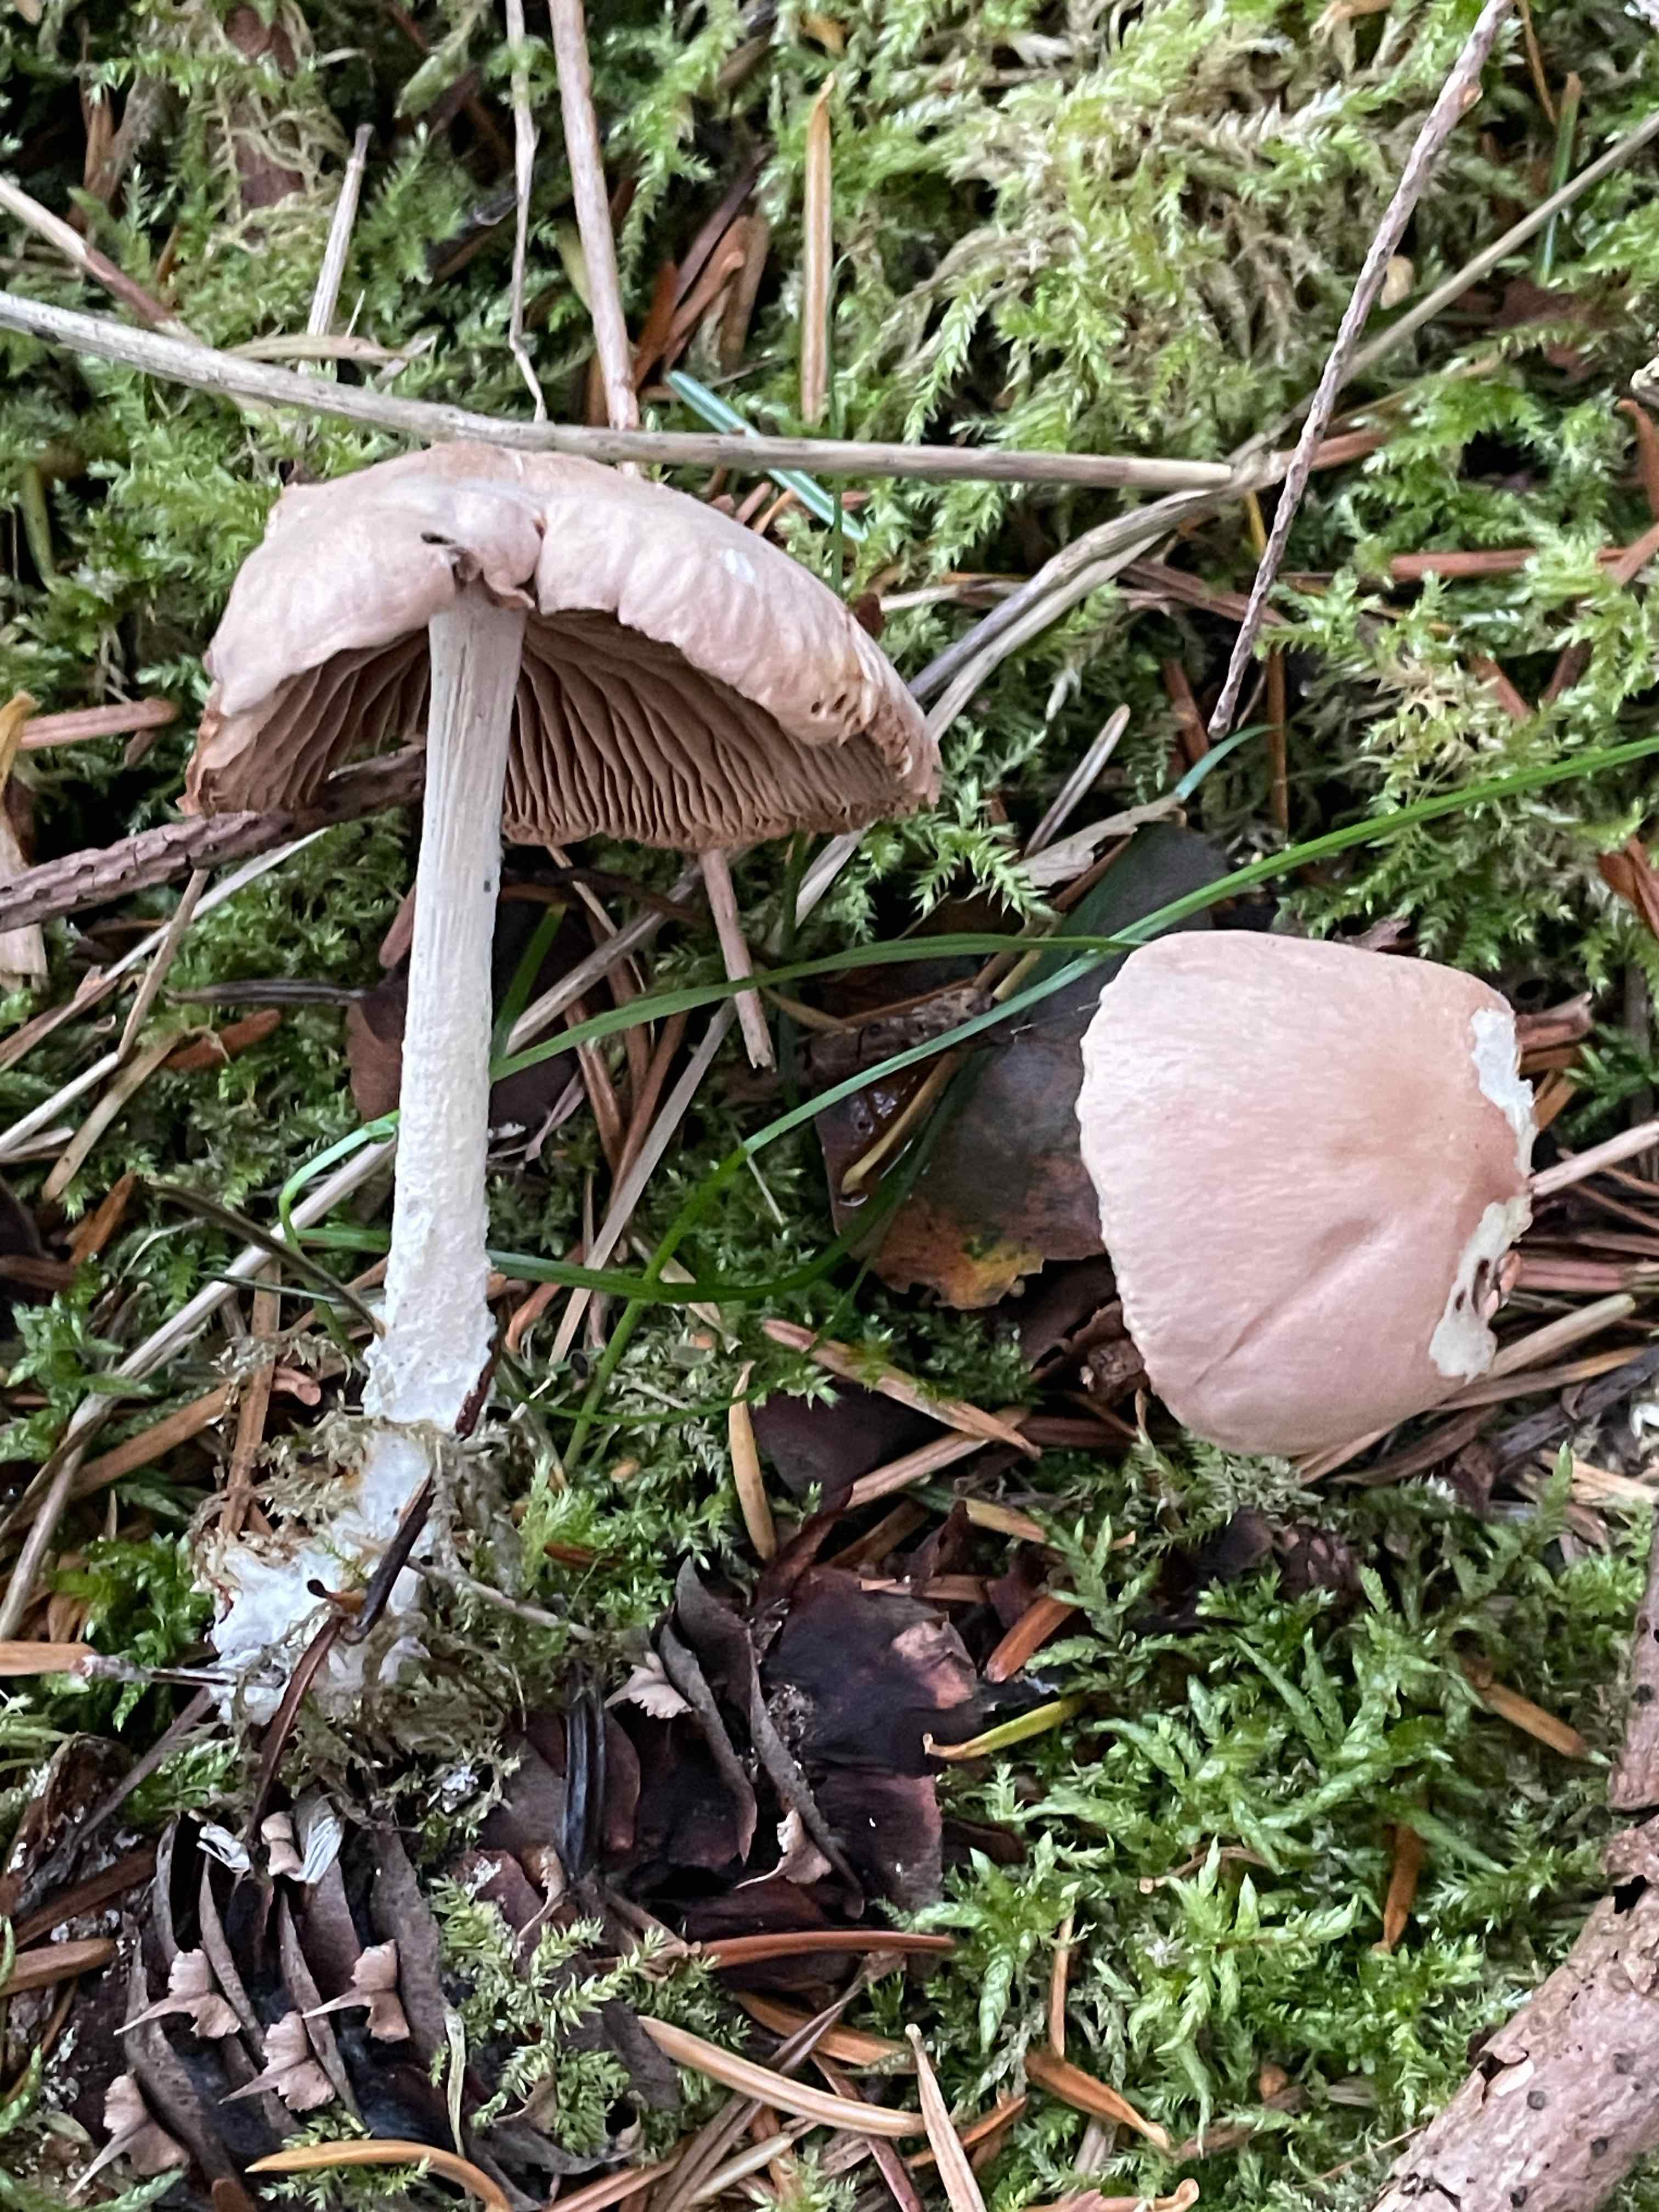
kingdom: Fungi
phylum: Basidiomycota
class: Agaricomycetes
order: Agaricales
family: Omphalotaceae
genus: Collybiopsis
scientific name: Collybiopsis peronata
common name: bestøvlet fladhat
